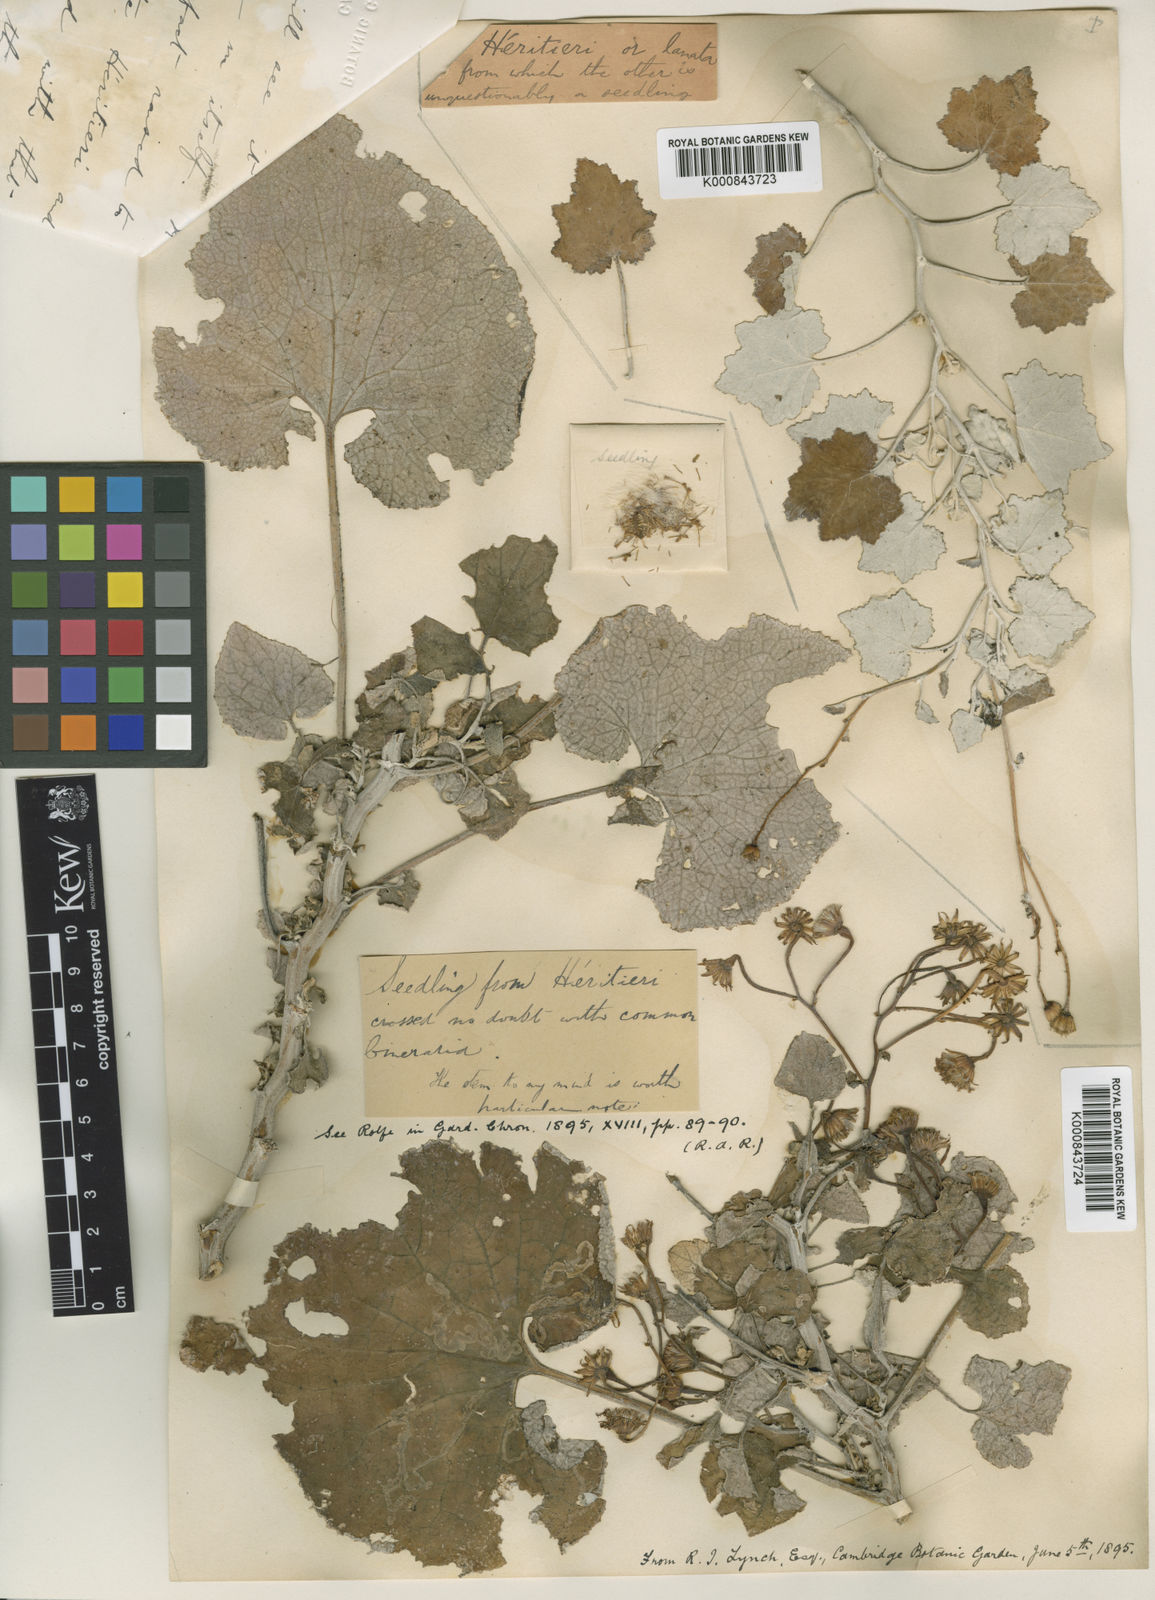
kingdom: Plantae
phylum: Tracheophyta
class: Magnoliopsida
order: Asterales
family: Asteraceae
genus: Senecio
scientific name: Senecio
